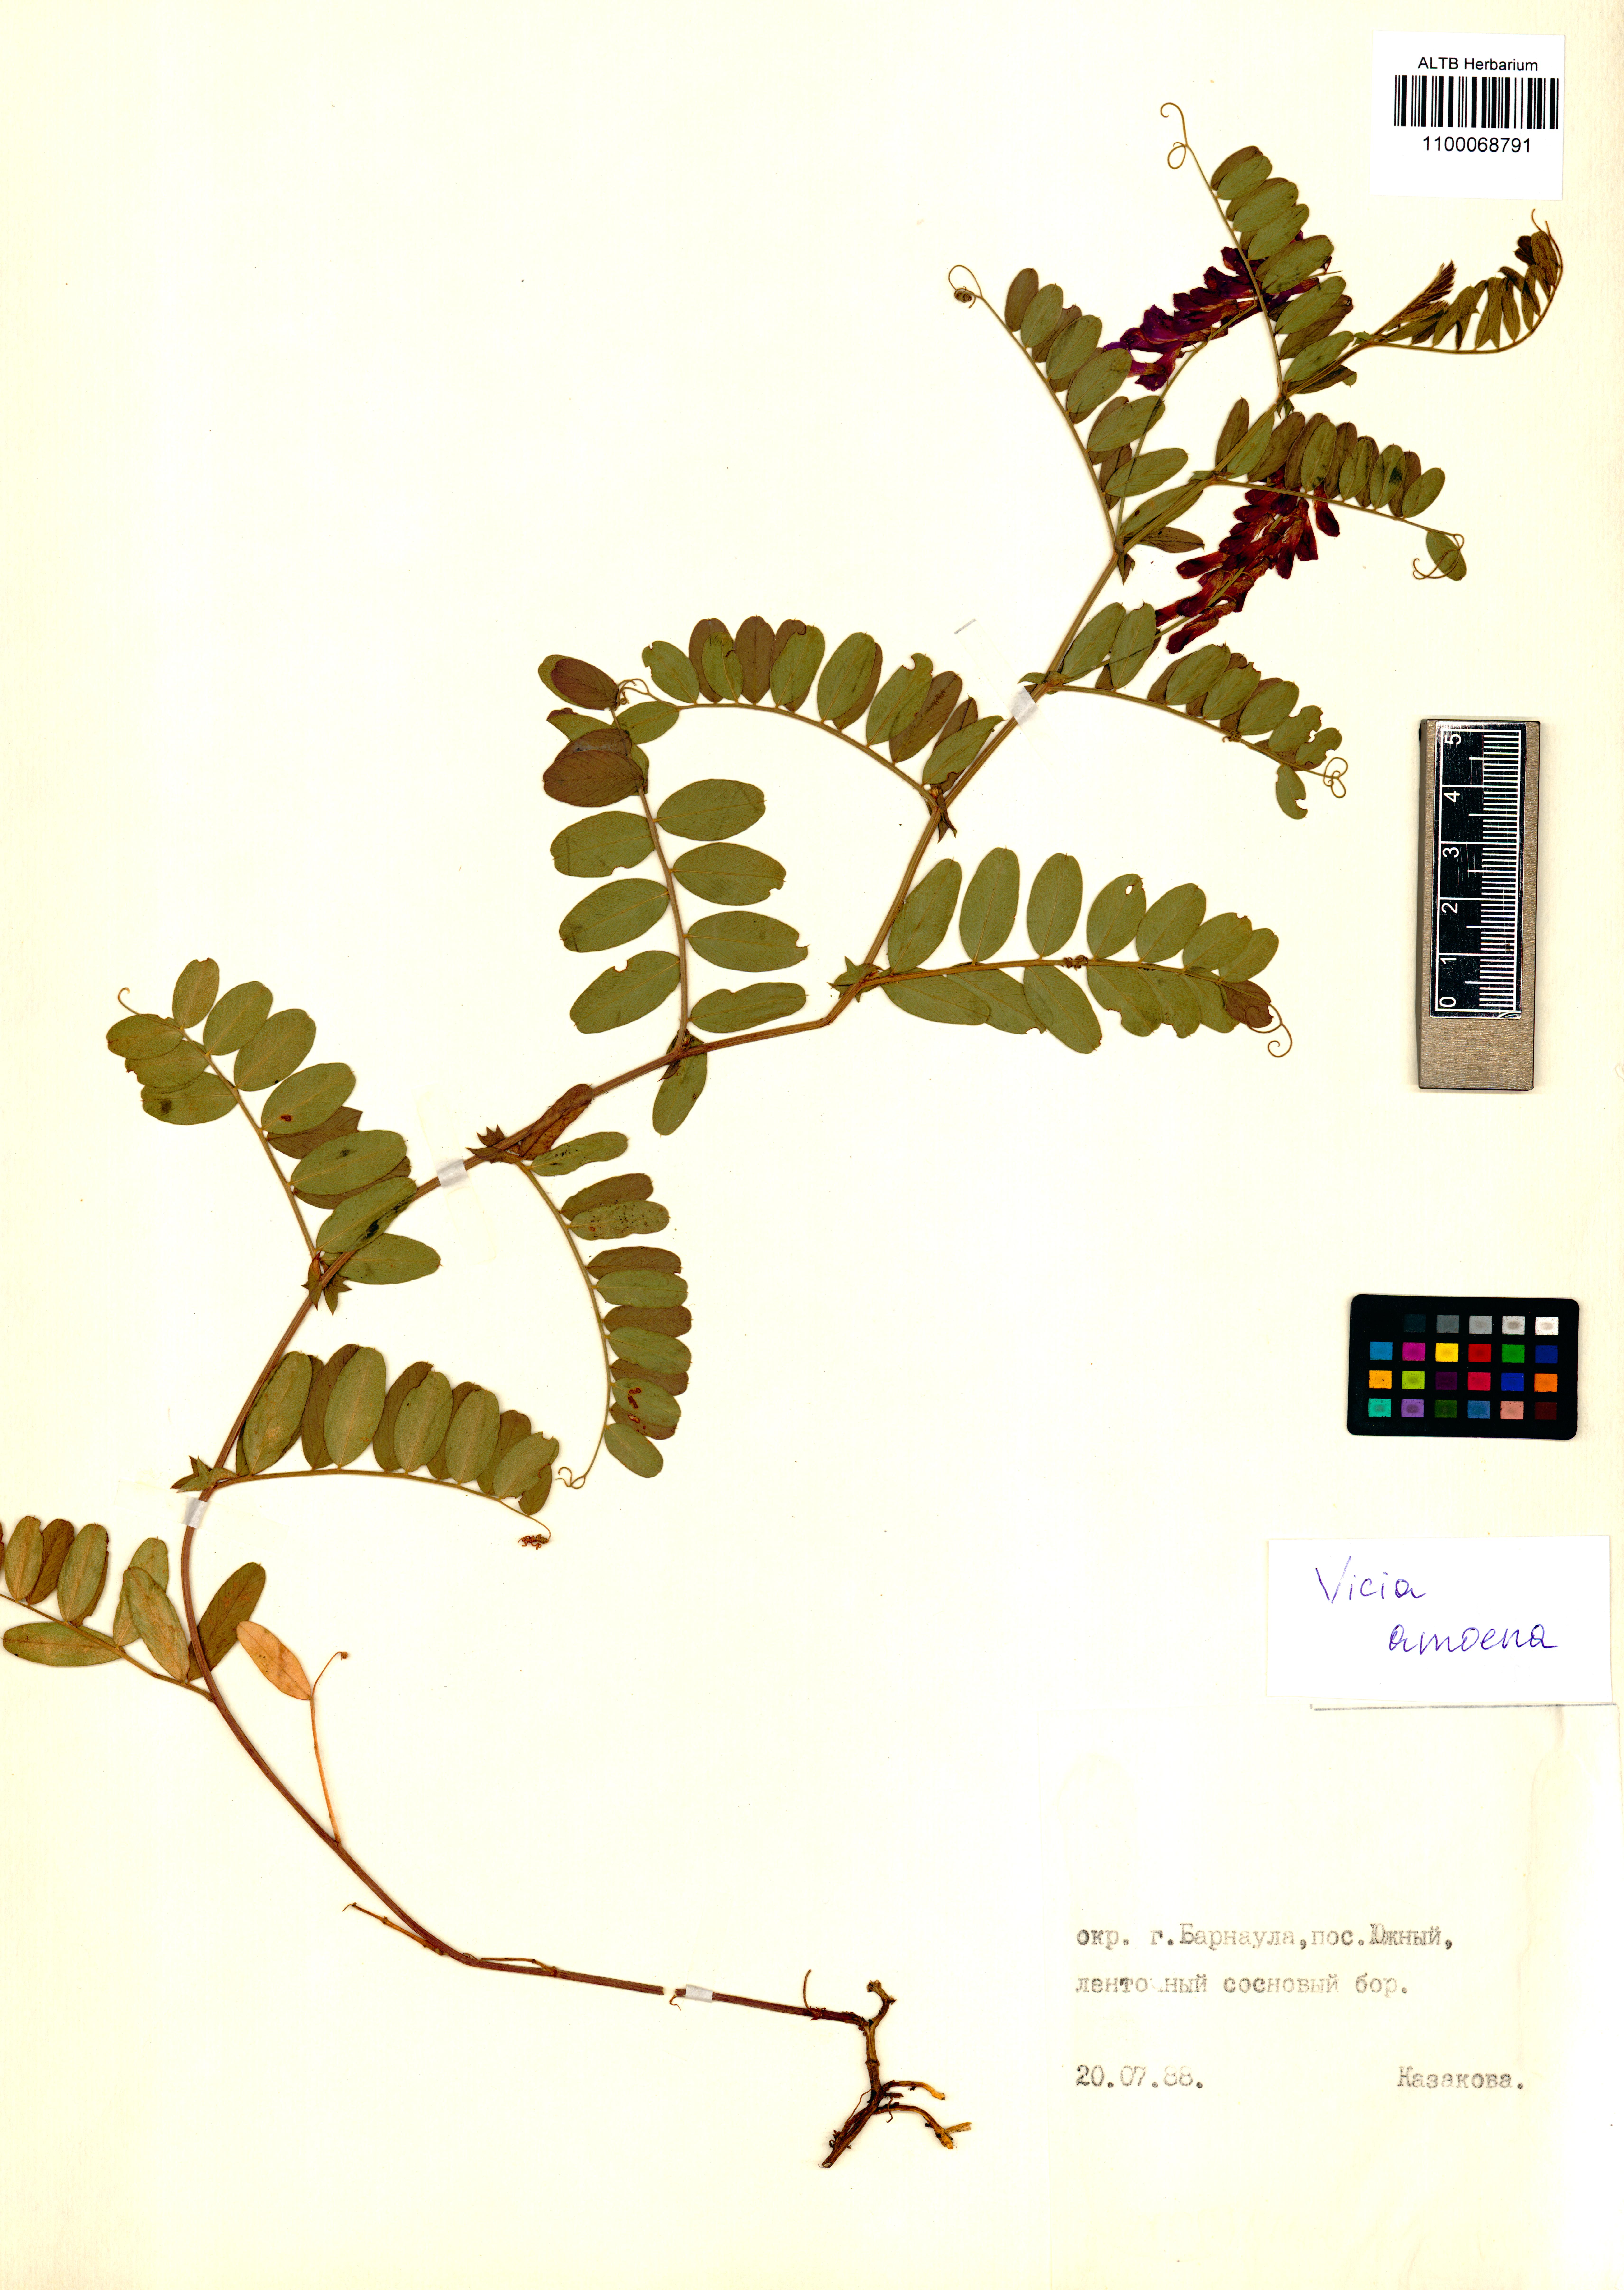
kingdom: Plantae
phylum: Tracheophyta
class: Magnoliopsida
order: Fabales
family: Fabaceae
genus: Vicia
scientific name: Vicia amoena
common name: Cheder ebs
